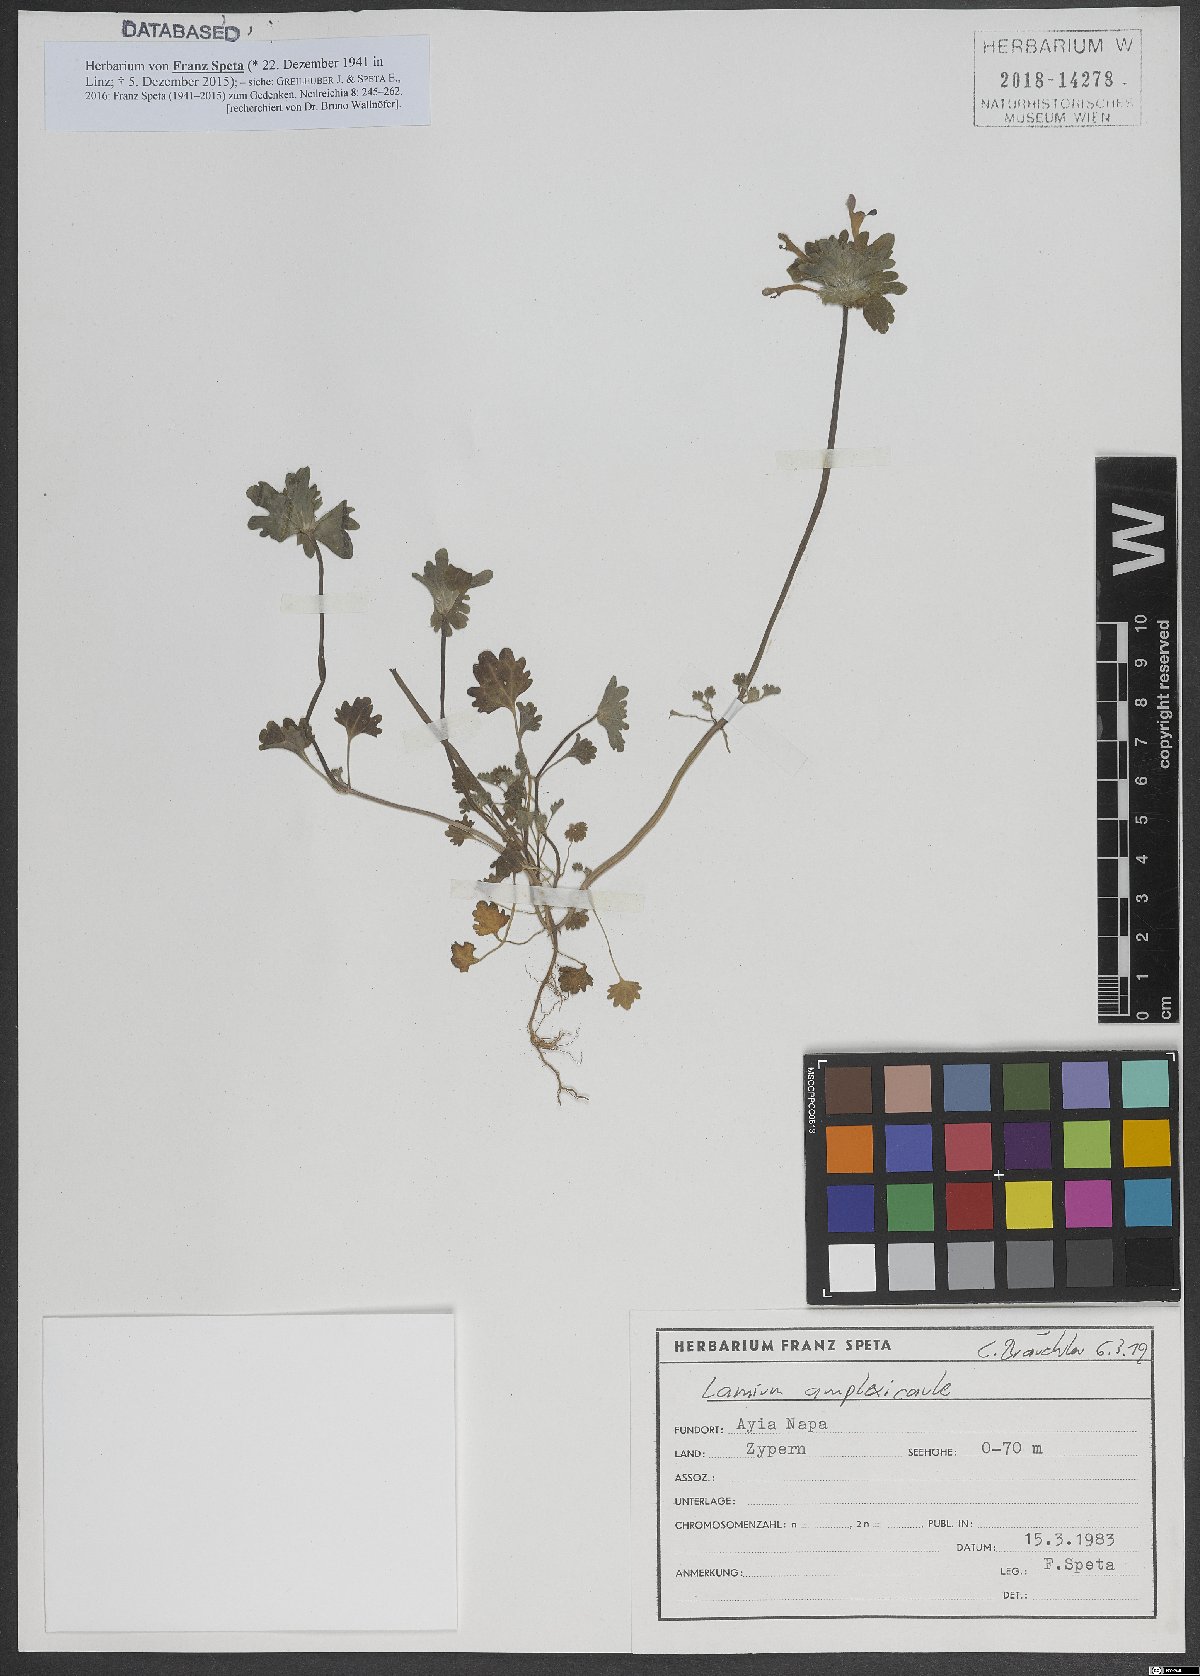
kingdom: Plantae
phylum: Tracheophyta
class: Magnoliopsida
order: Lamiales
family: Lamiaceae
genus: Lamium
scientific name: Lamium amplexicaule
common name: Henbit dead-nettle
